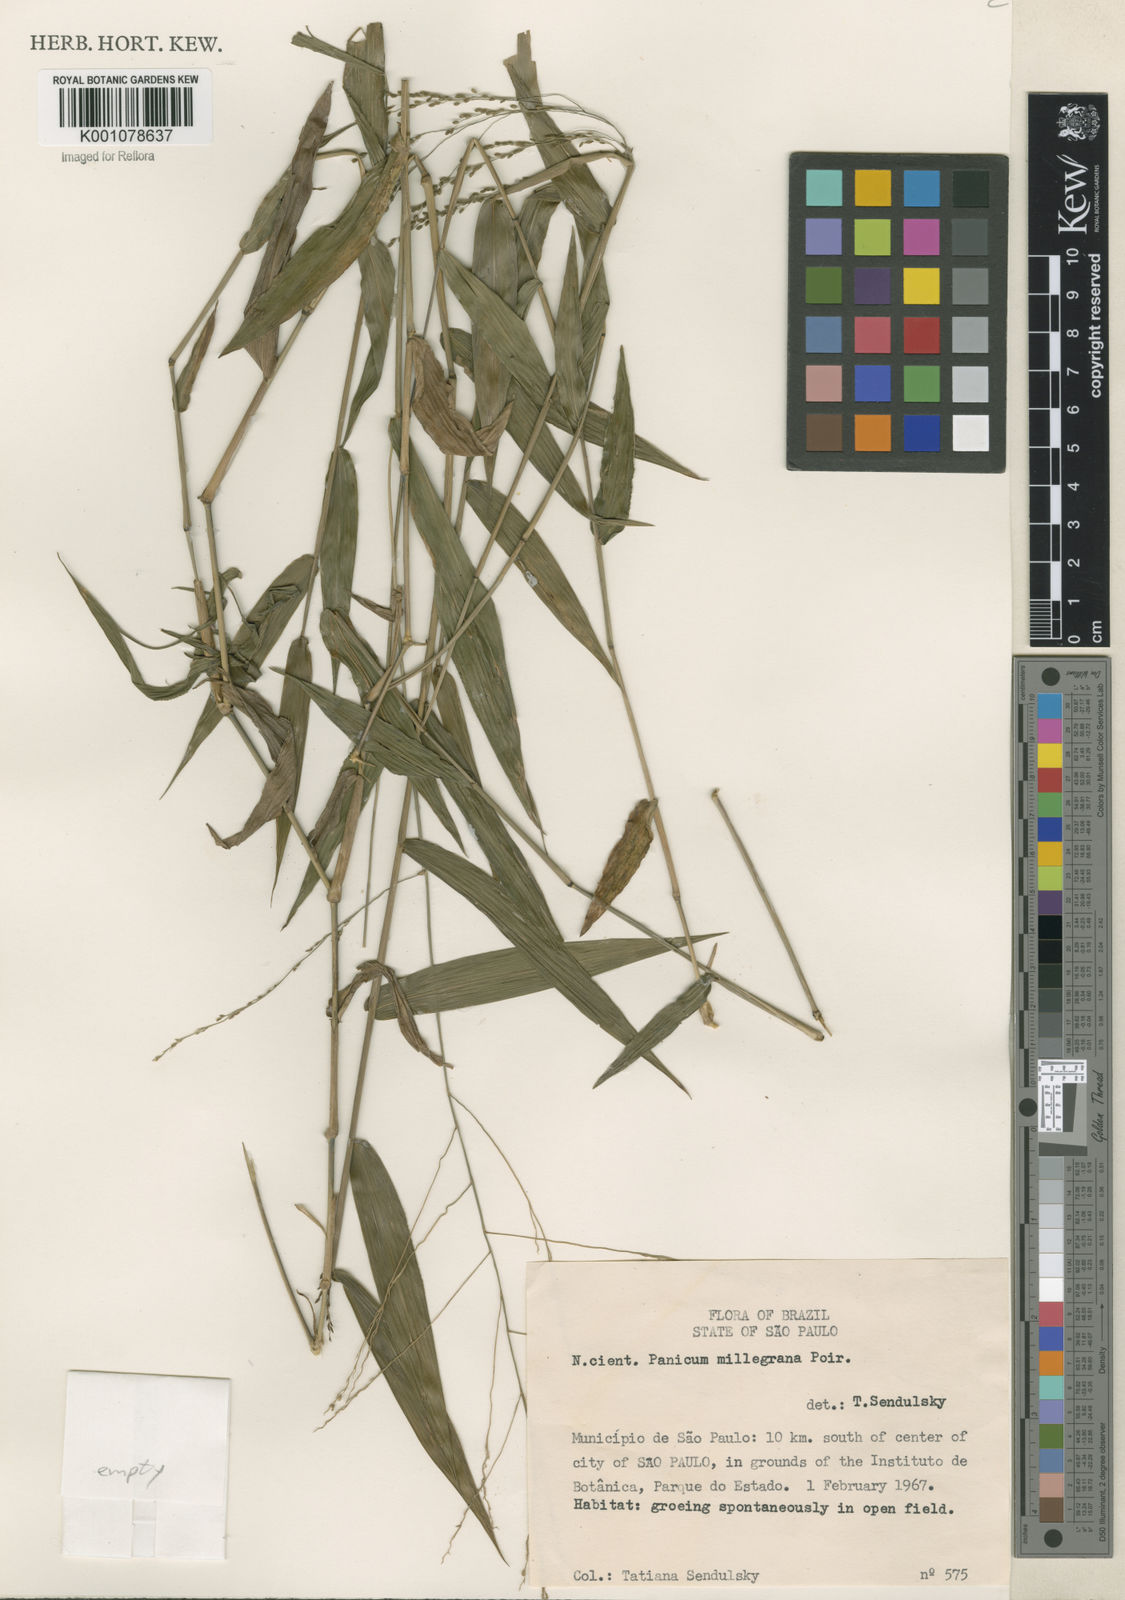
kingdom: Plantae
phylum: Tracheophyta
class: Liliopsida
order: Poales
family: Poaceae
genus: Panicum
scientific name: Panicum millegrana
